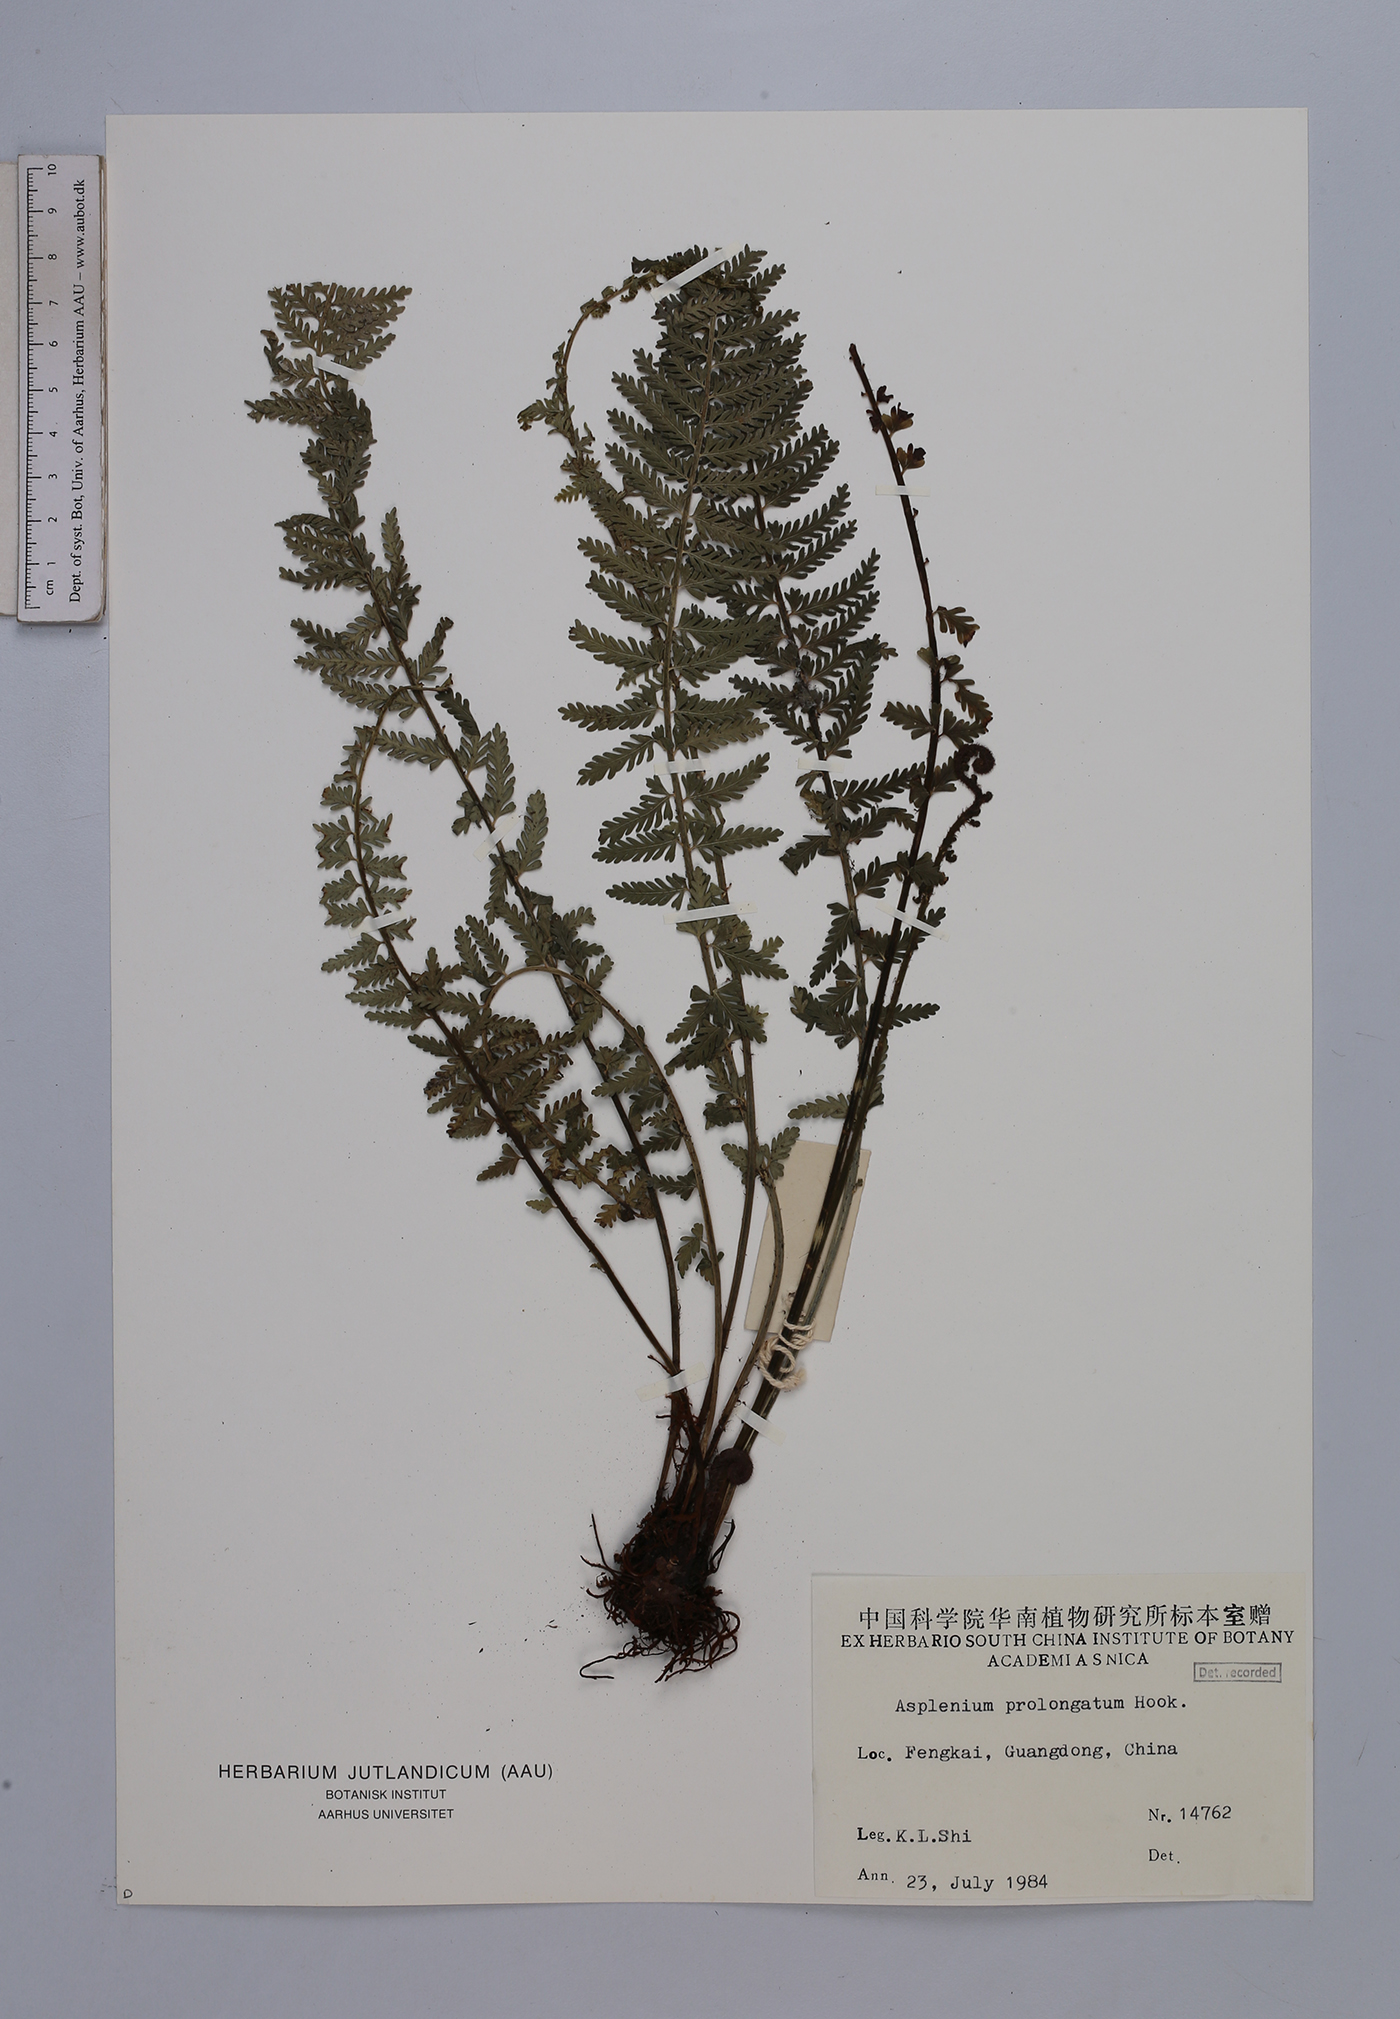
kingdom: Plantae
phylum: Tracheophyta
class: Polypodiopsida
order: Polypodiales
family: Aspleniaceae
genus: Asplenium
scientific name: Asplenium prolongatum
